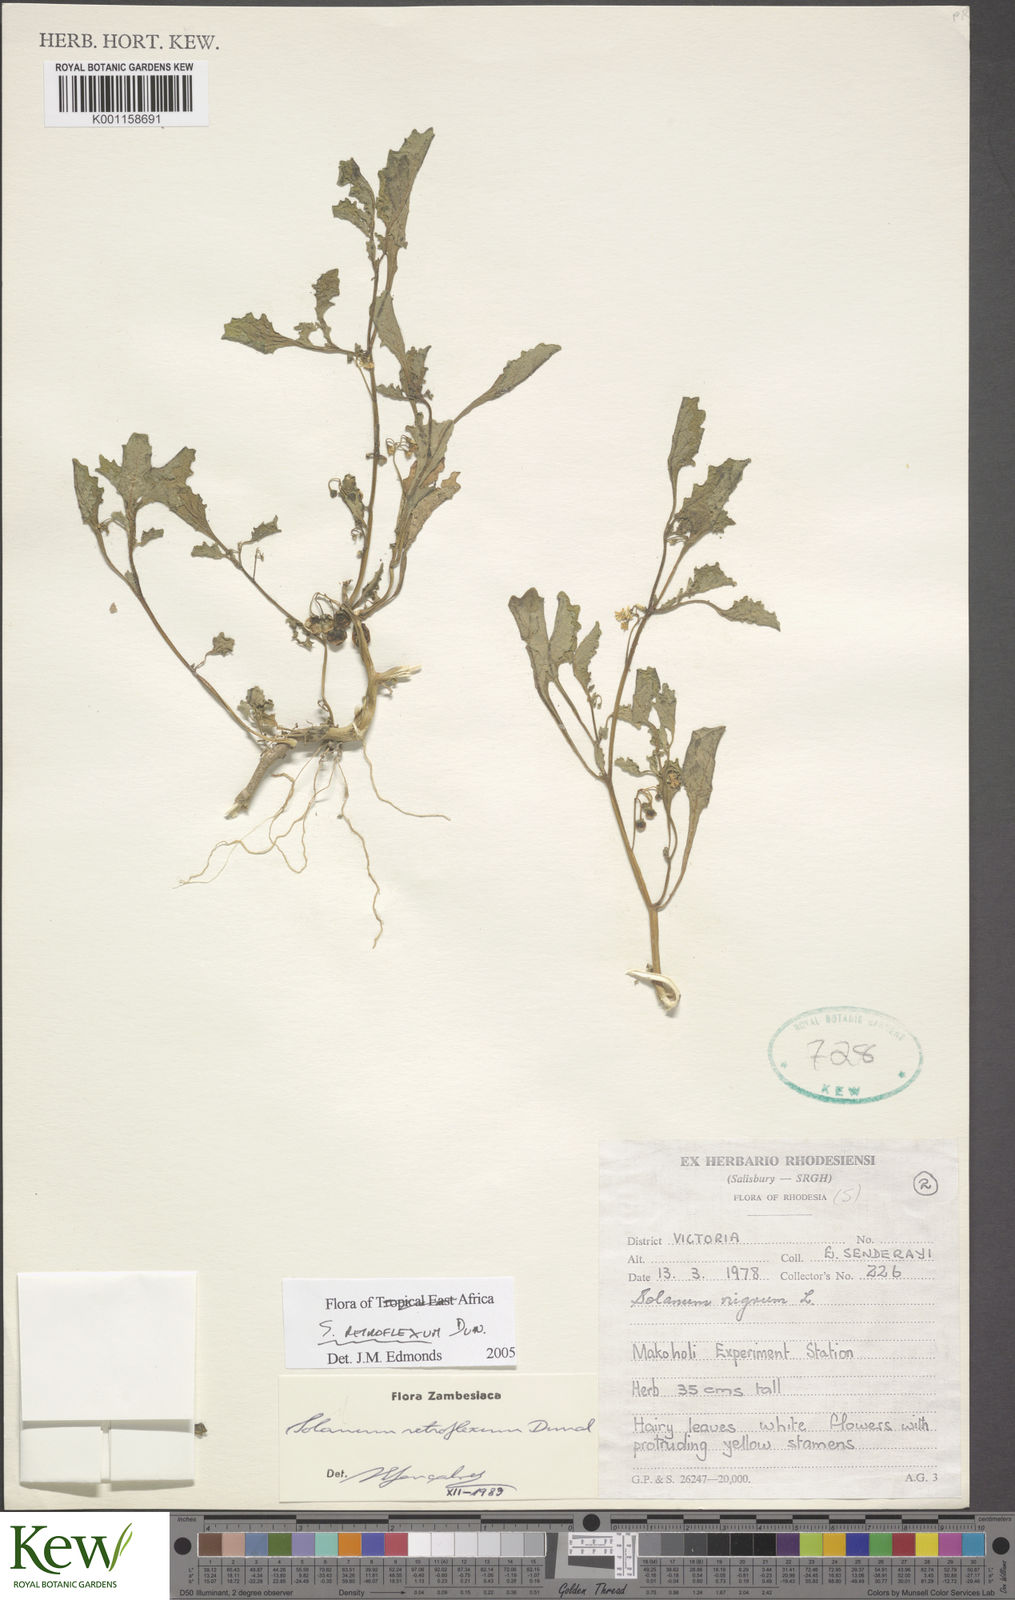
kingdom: Plantae
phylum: Tracheophyta
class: Magnoliopsida
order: Solanales
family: Solanaceae
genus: Solanum
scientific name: Solanum retroflexum
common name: Wonderberry
